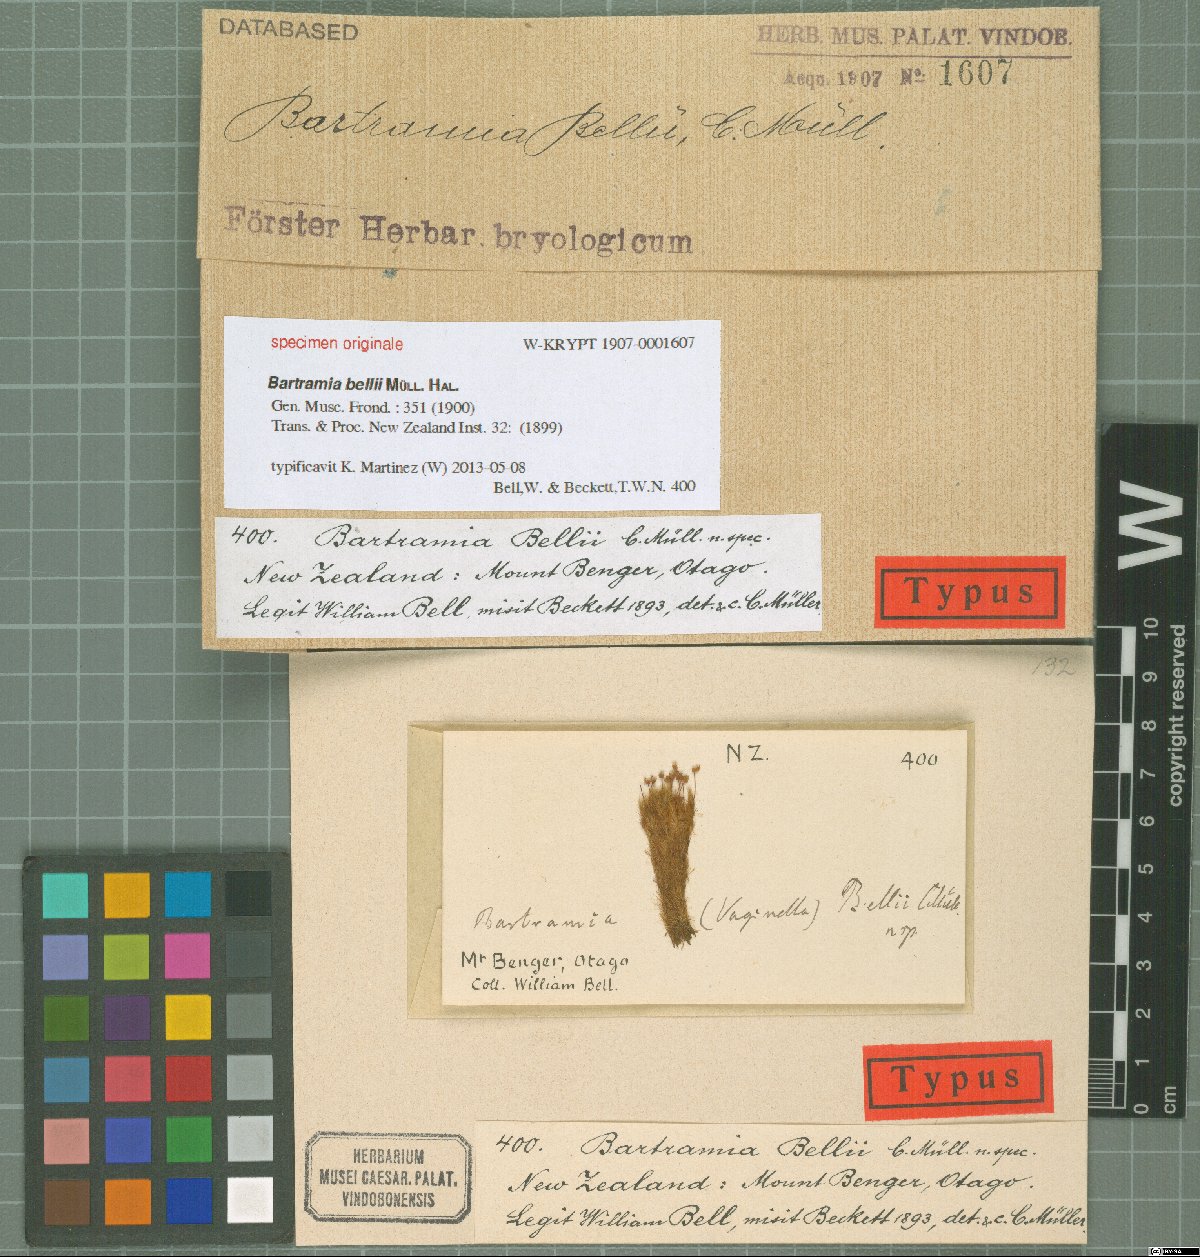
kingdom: Plantae
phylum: Bryophyta
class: Bryopsida
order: Bartramiales
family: Bartramiaceae
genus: Breutelia
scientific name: Breutelia pendula
